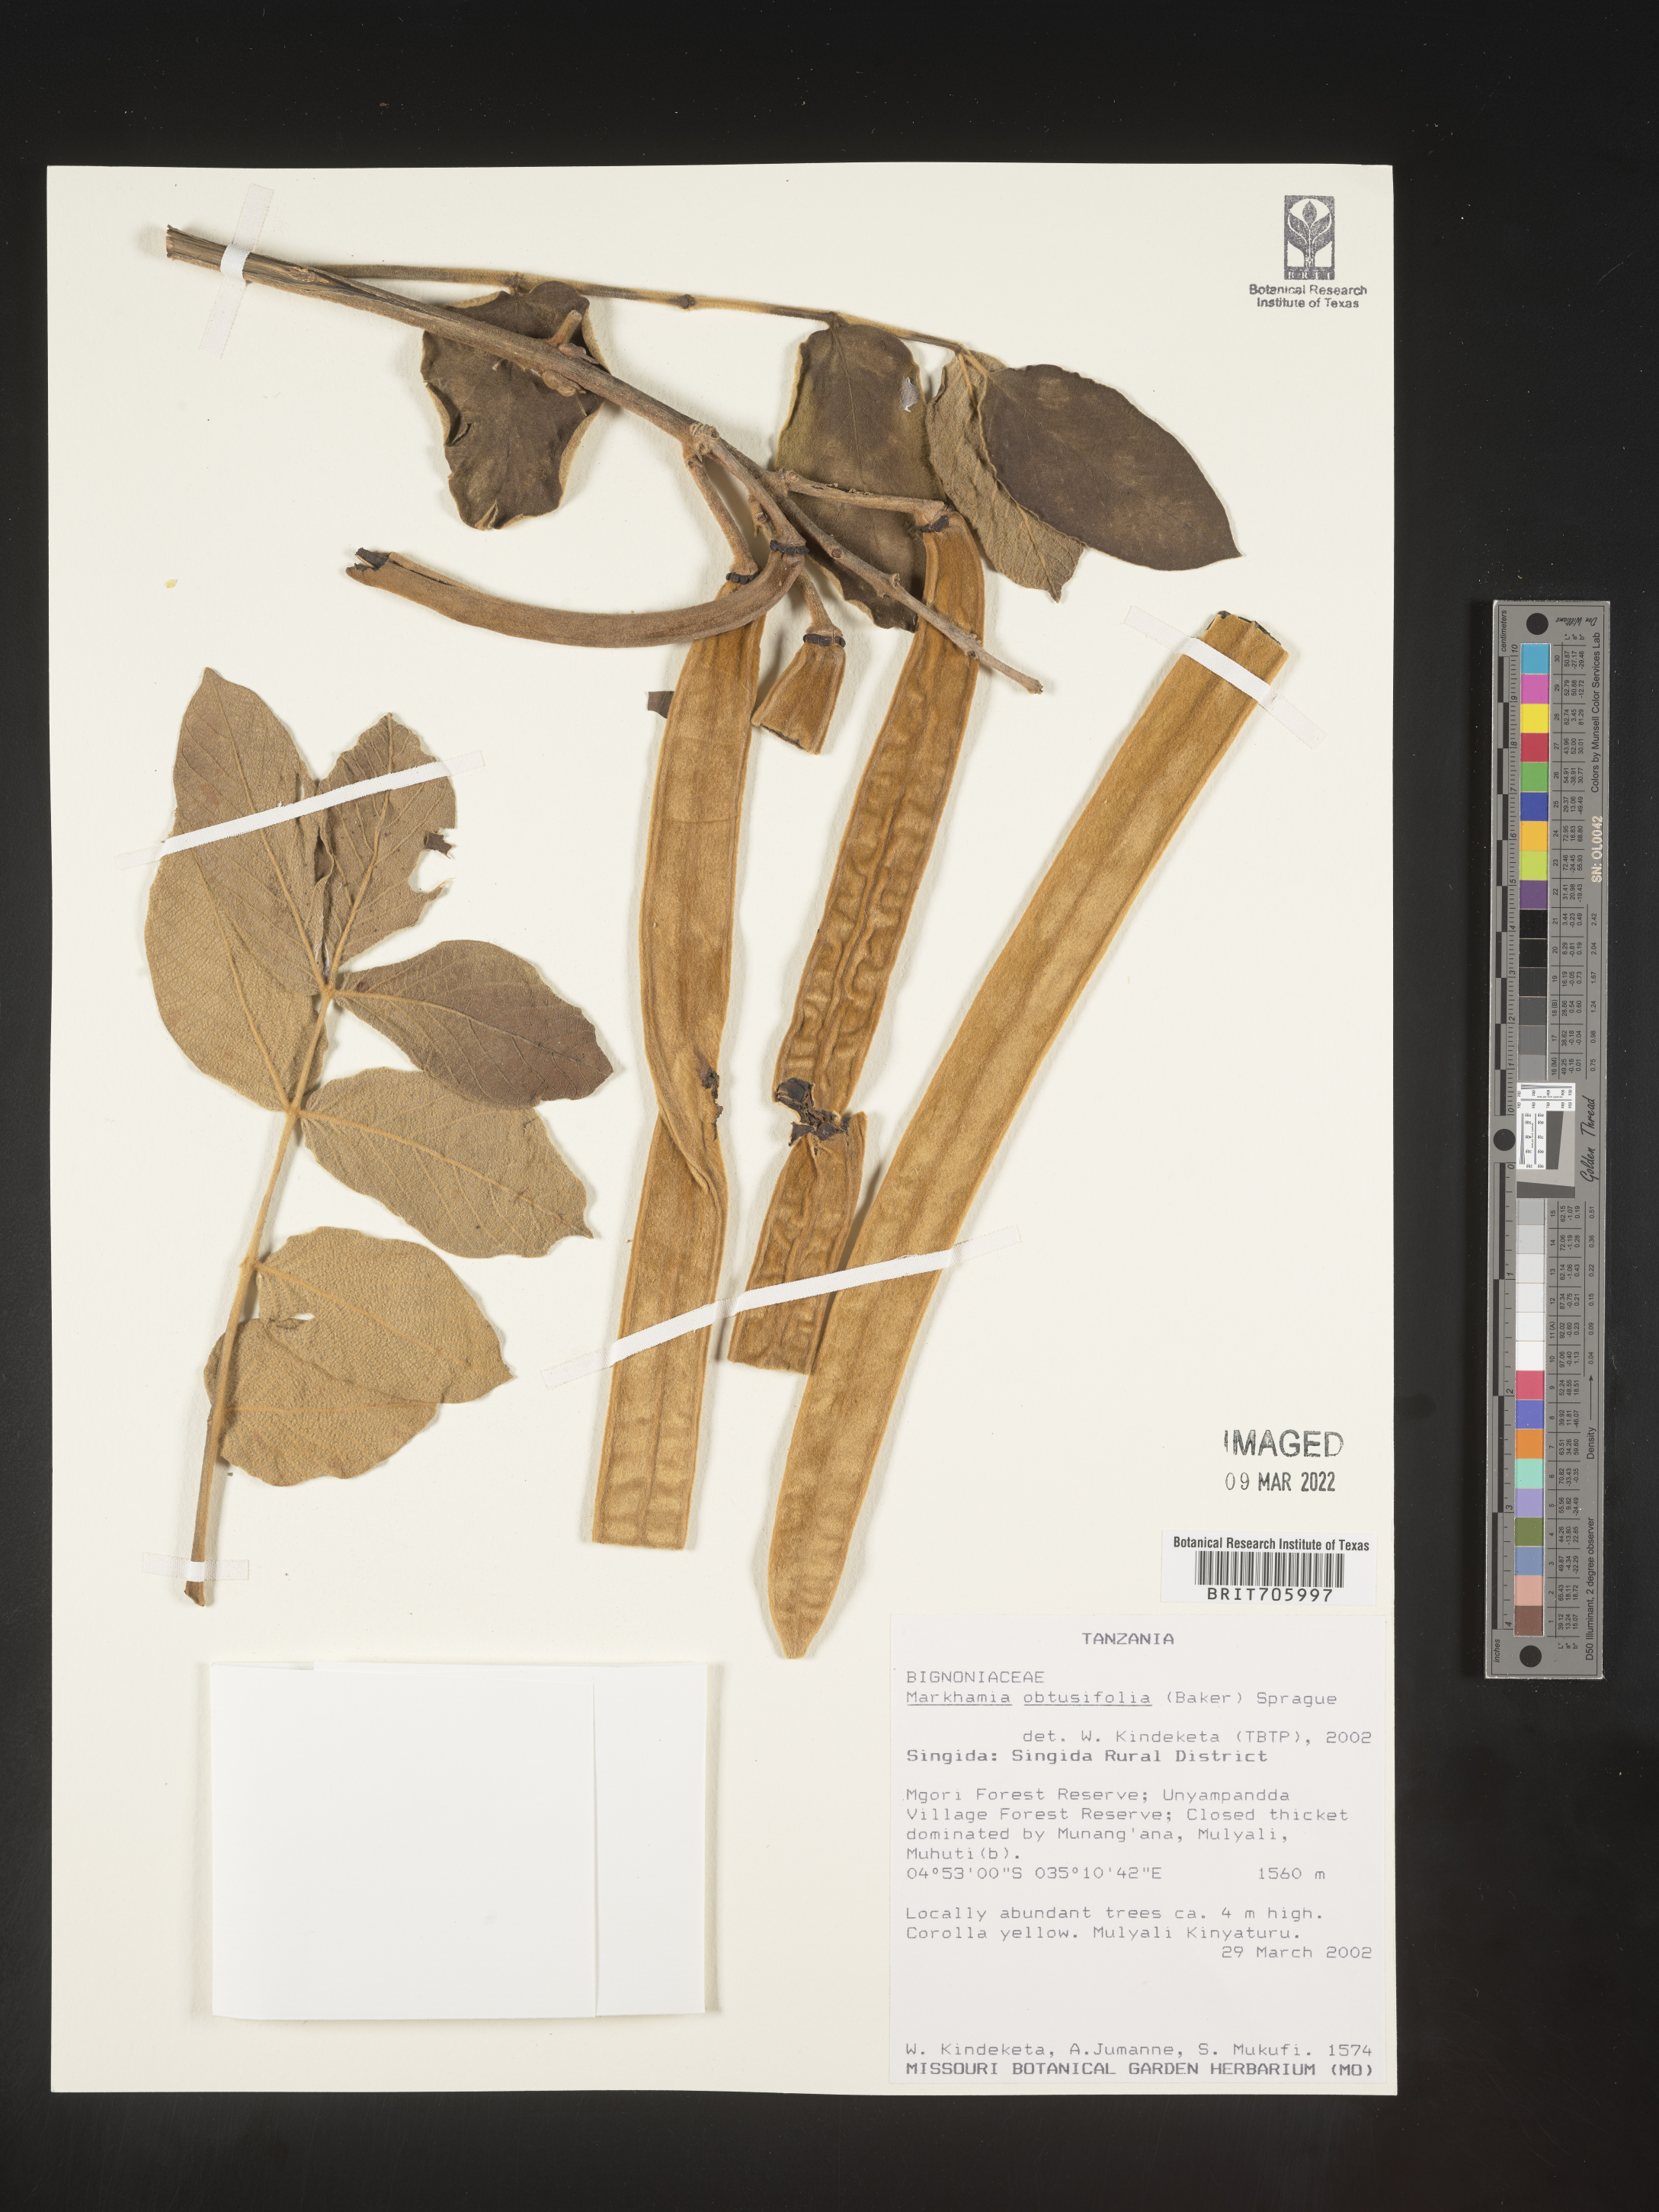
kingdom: Plantae
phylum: Tracheophyta
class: Magnoliopsida
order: Lamiales
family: Bignoniaceae
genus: Markhamia
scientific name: Markhamia
